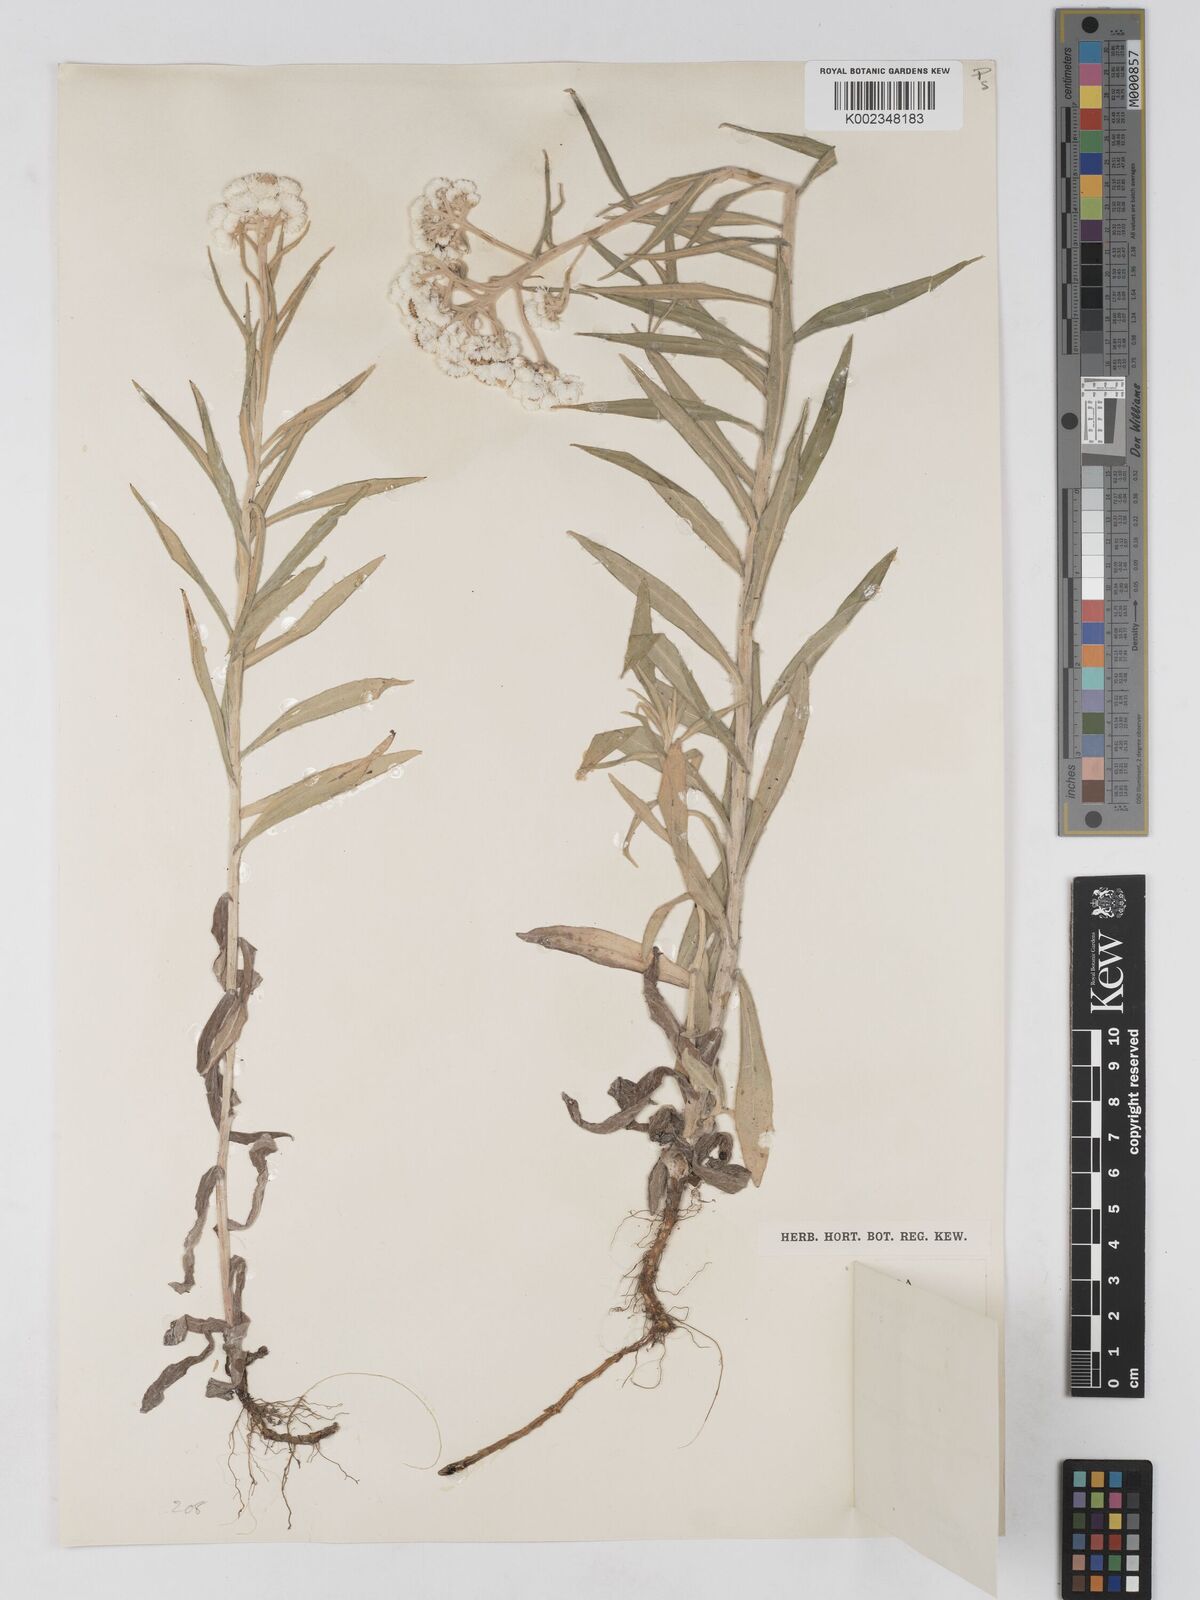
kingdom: Plantae
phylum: Tracheophyta
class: Magnoliopsida
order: Asterales
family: Asteraceae
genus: Anaphalis
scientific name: Anaphalis margaritacea
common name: Pearly everlasting
